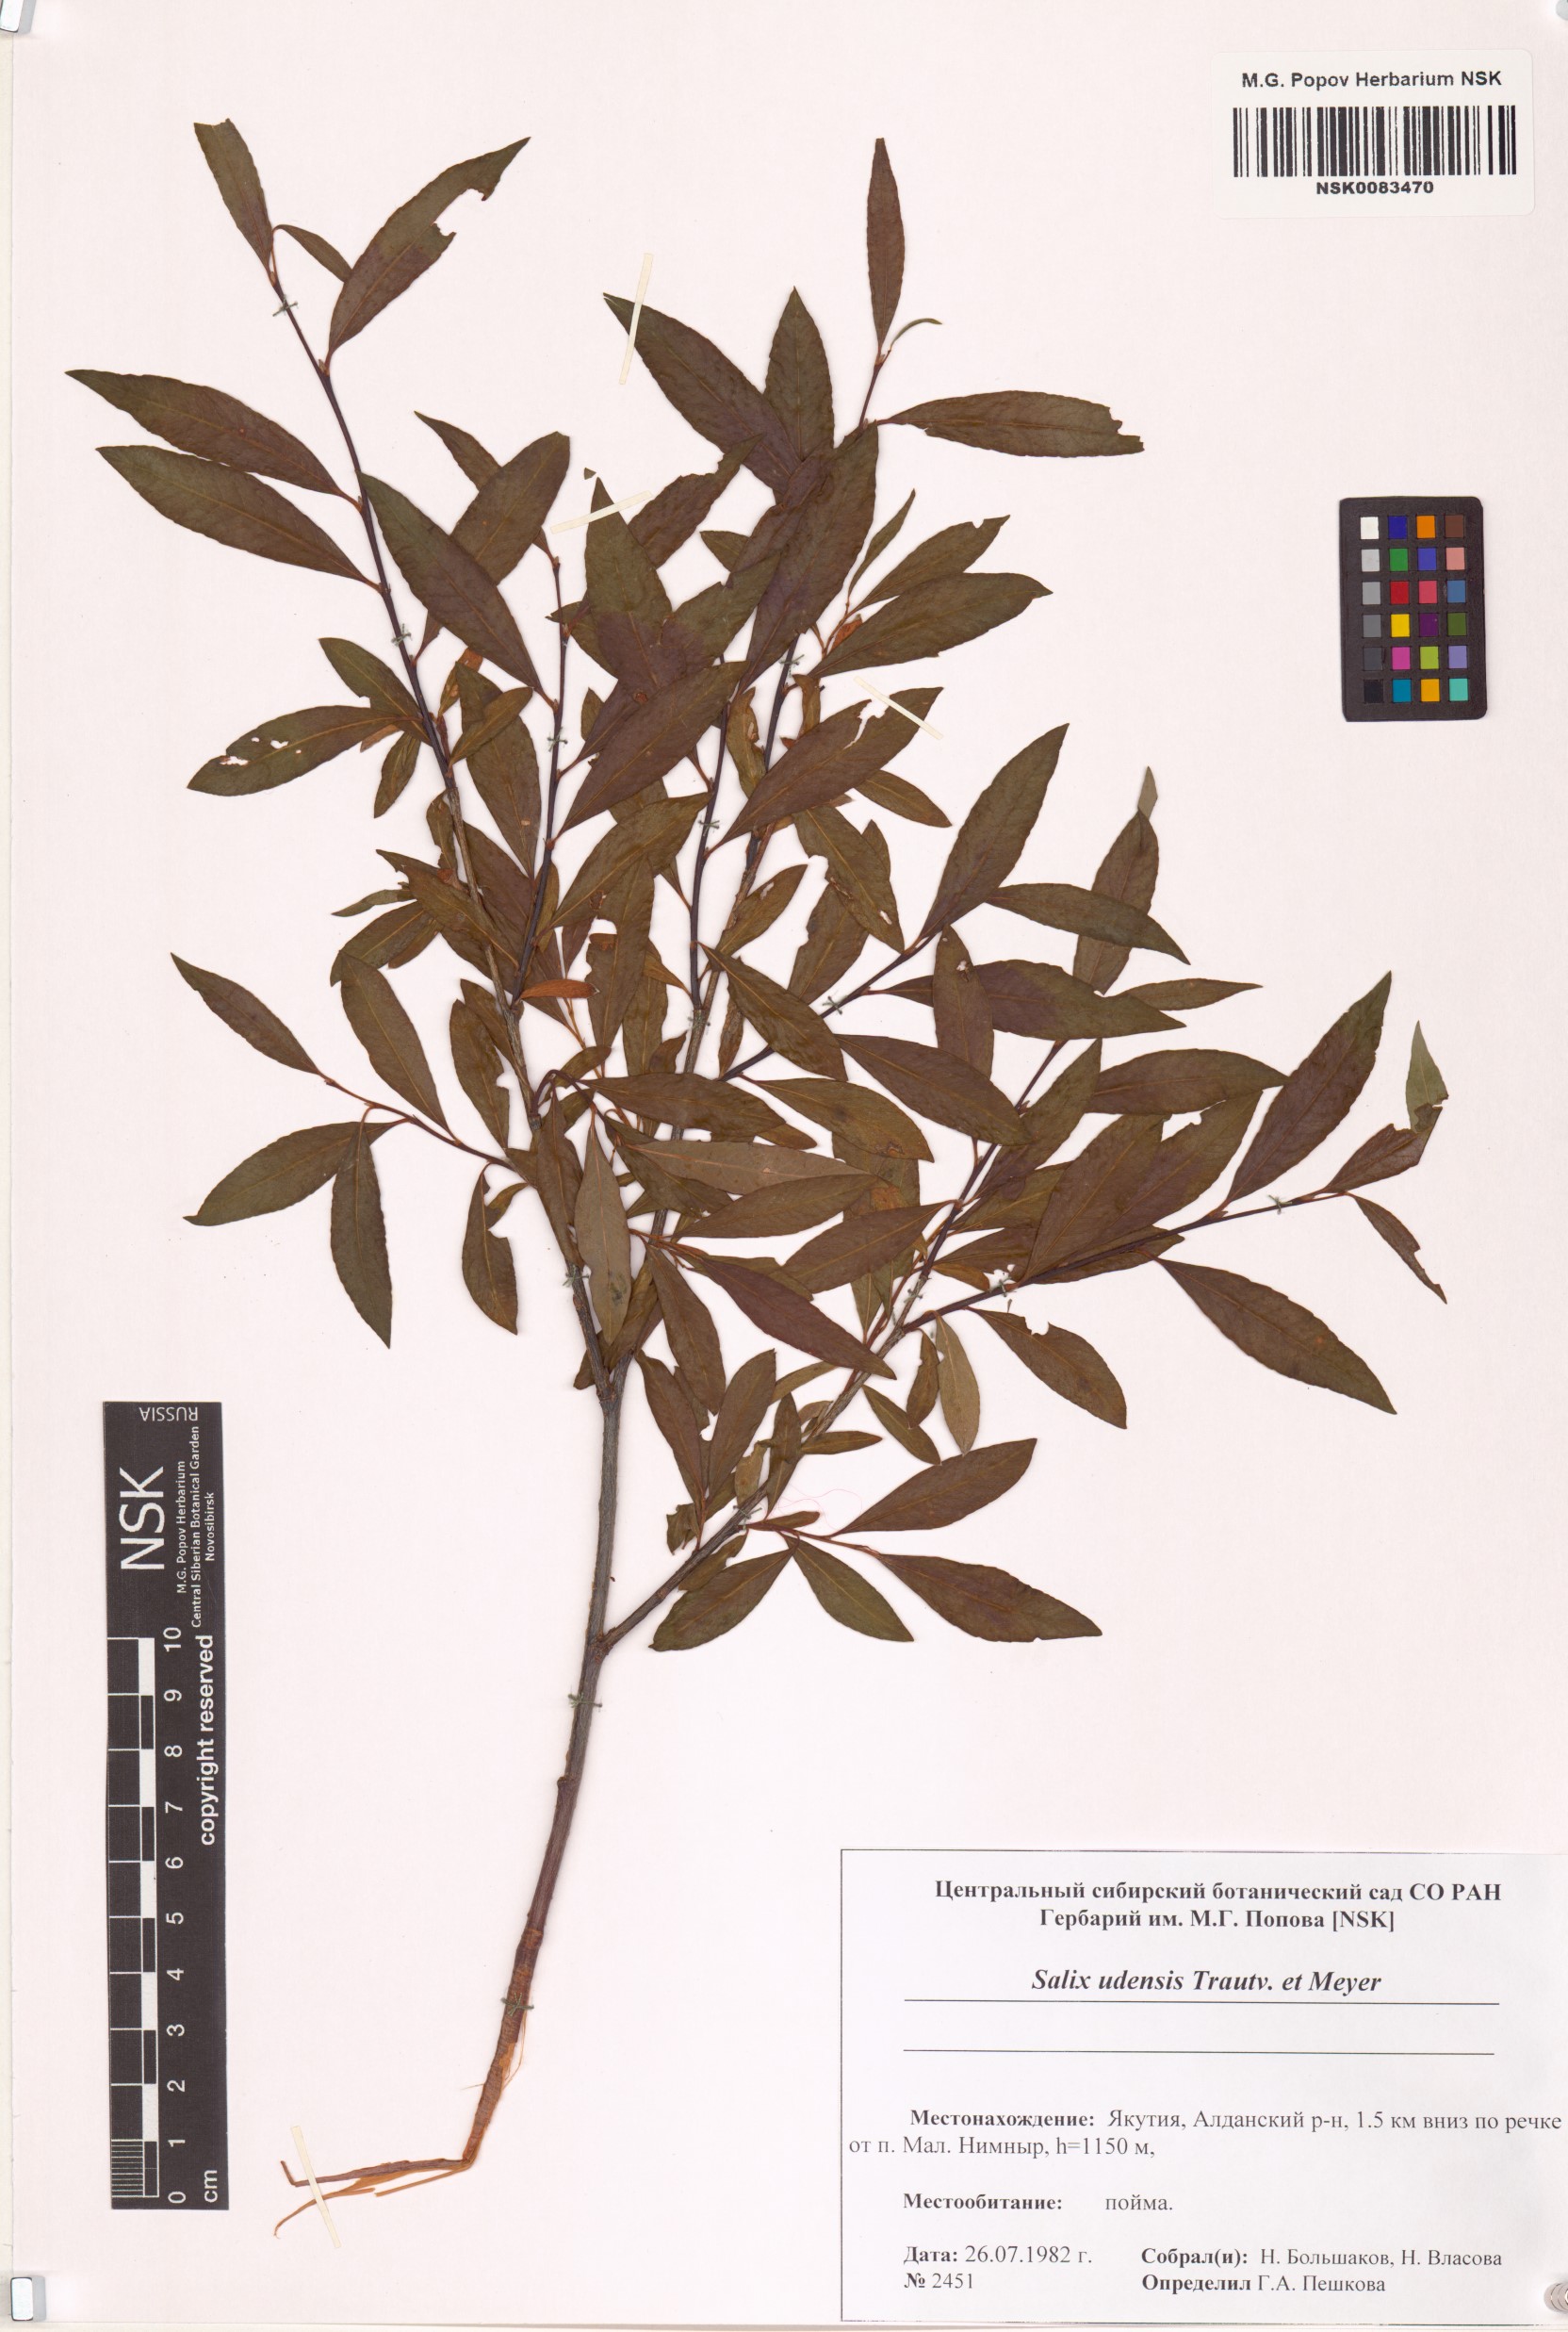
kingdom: Plantae
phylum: Tracheophyta
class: Magnoliopsida
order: Malpighiales
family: Salicaceae
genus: Salix
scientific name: Salix udensis
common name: Sachalin willow
